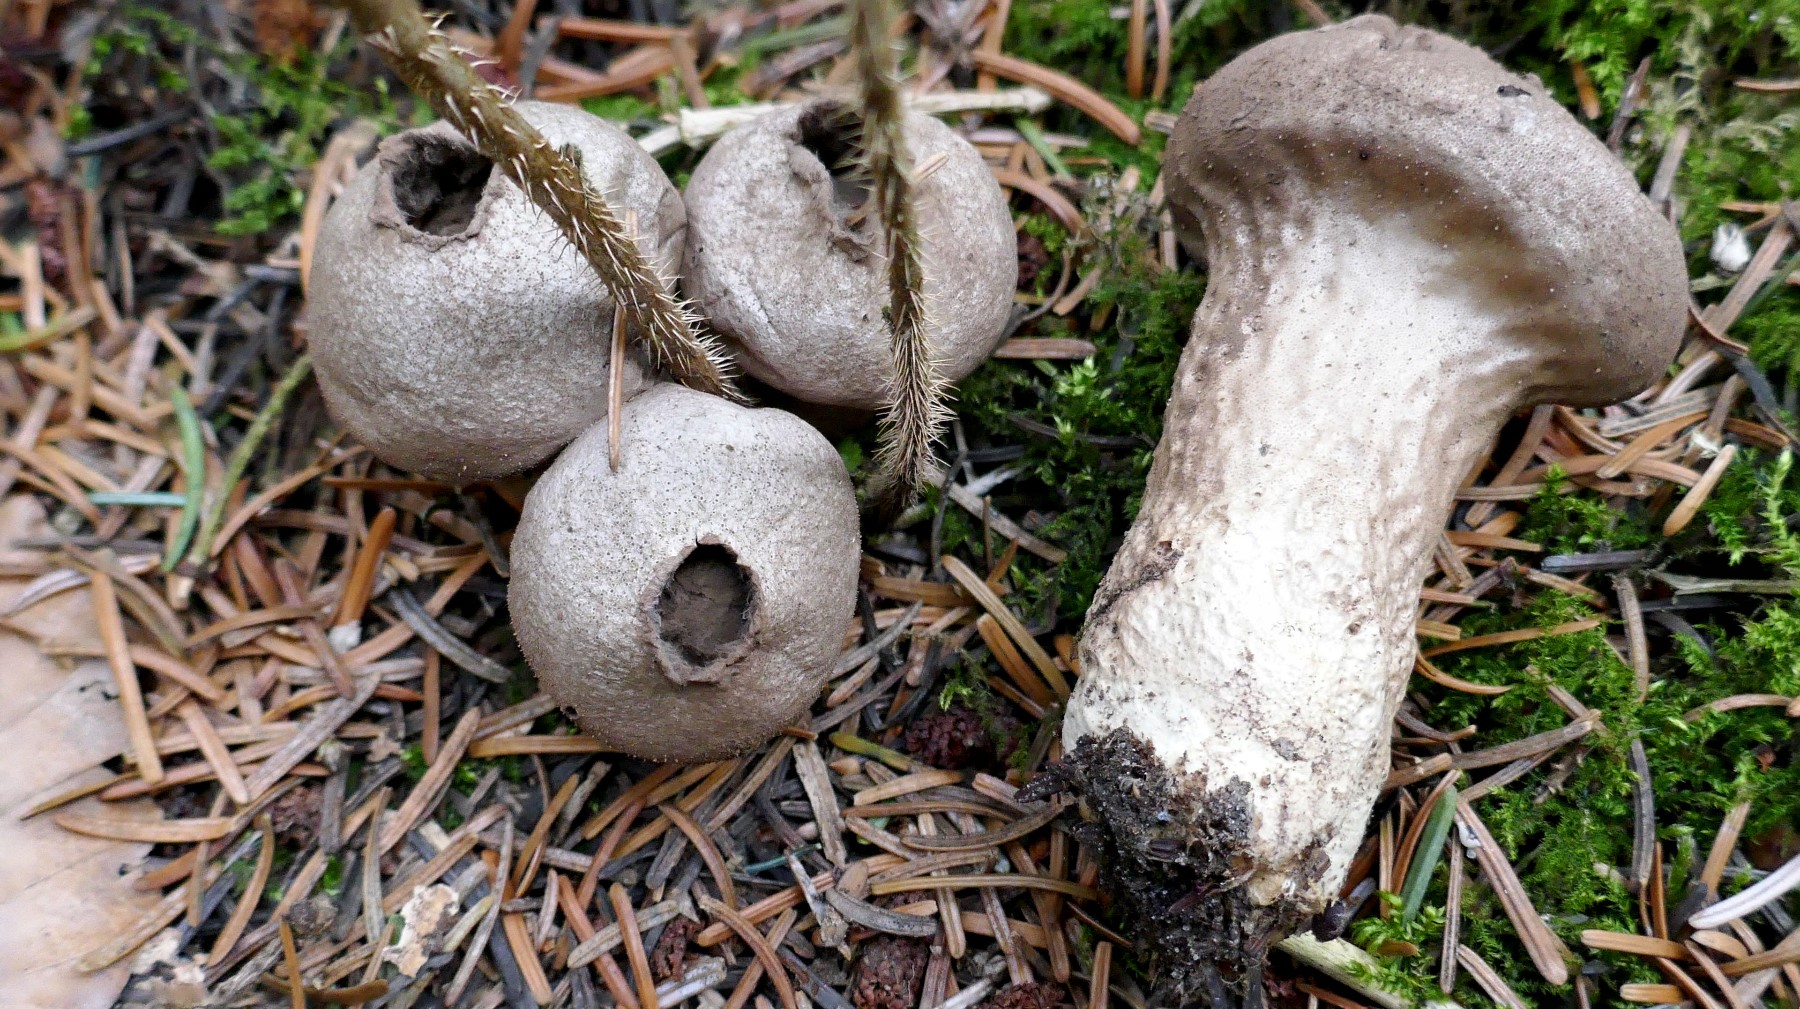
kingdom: Fungi
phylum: Basidiomycota
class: Agaricomycetes
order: Agaricales
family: Lycoperdaceae
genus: Lycoperdon
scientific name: Lycoperdon perlatum
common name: krystal-støvbold
